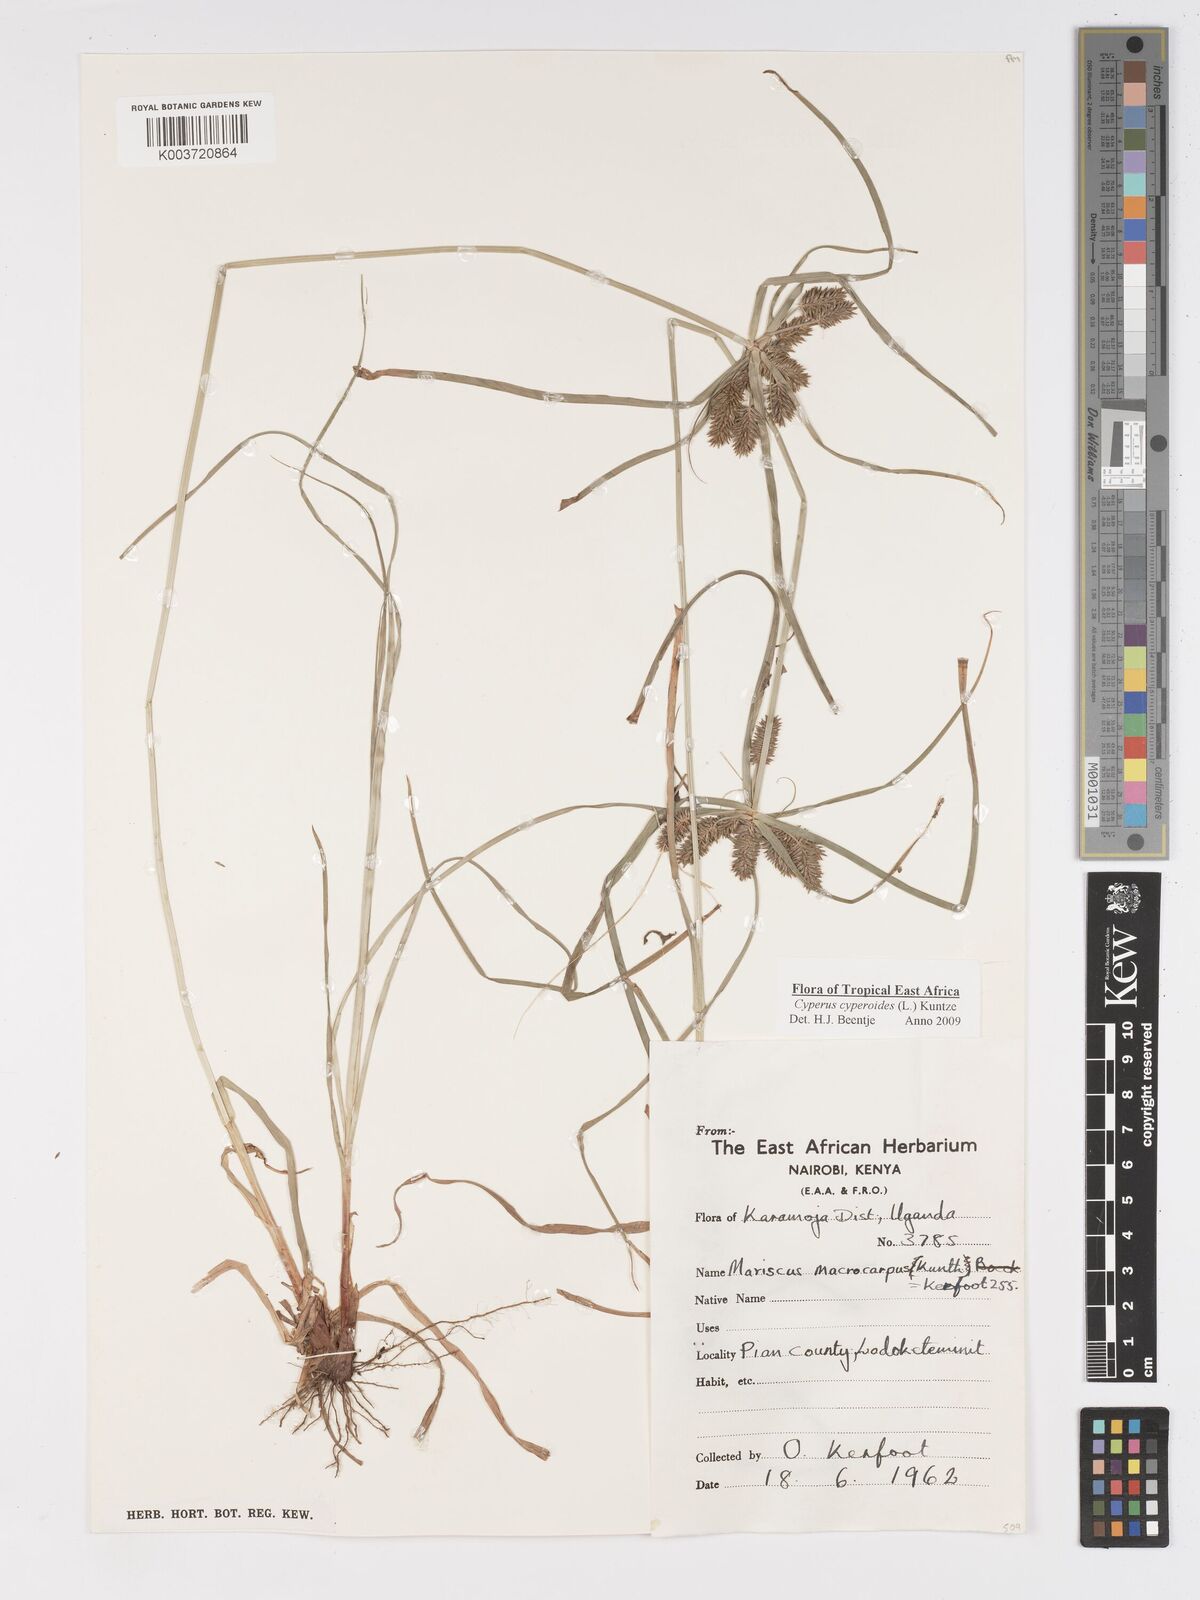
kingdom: Plantae
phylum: Tracheophyta
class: Liliopsida
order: Poales
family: Cyperaceae
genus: Cyperus
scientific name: Cyperus macrocarpus
